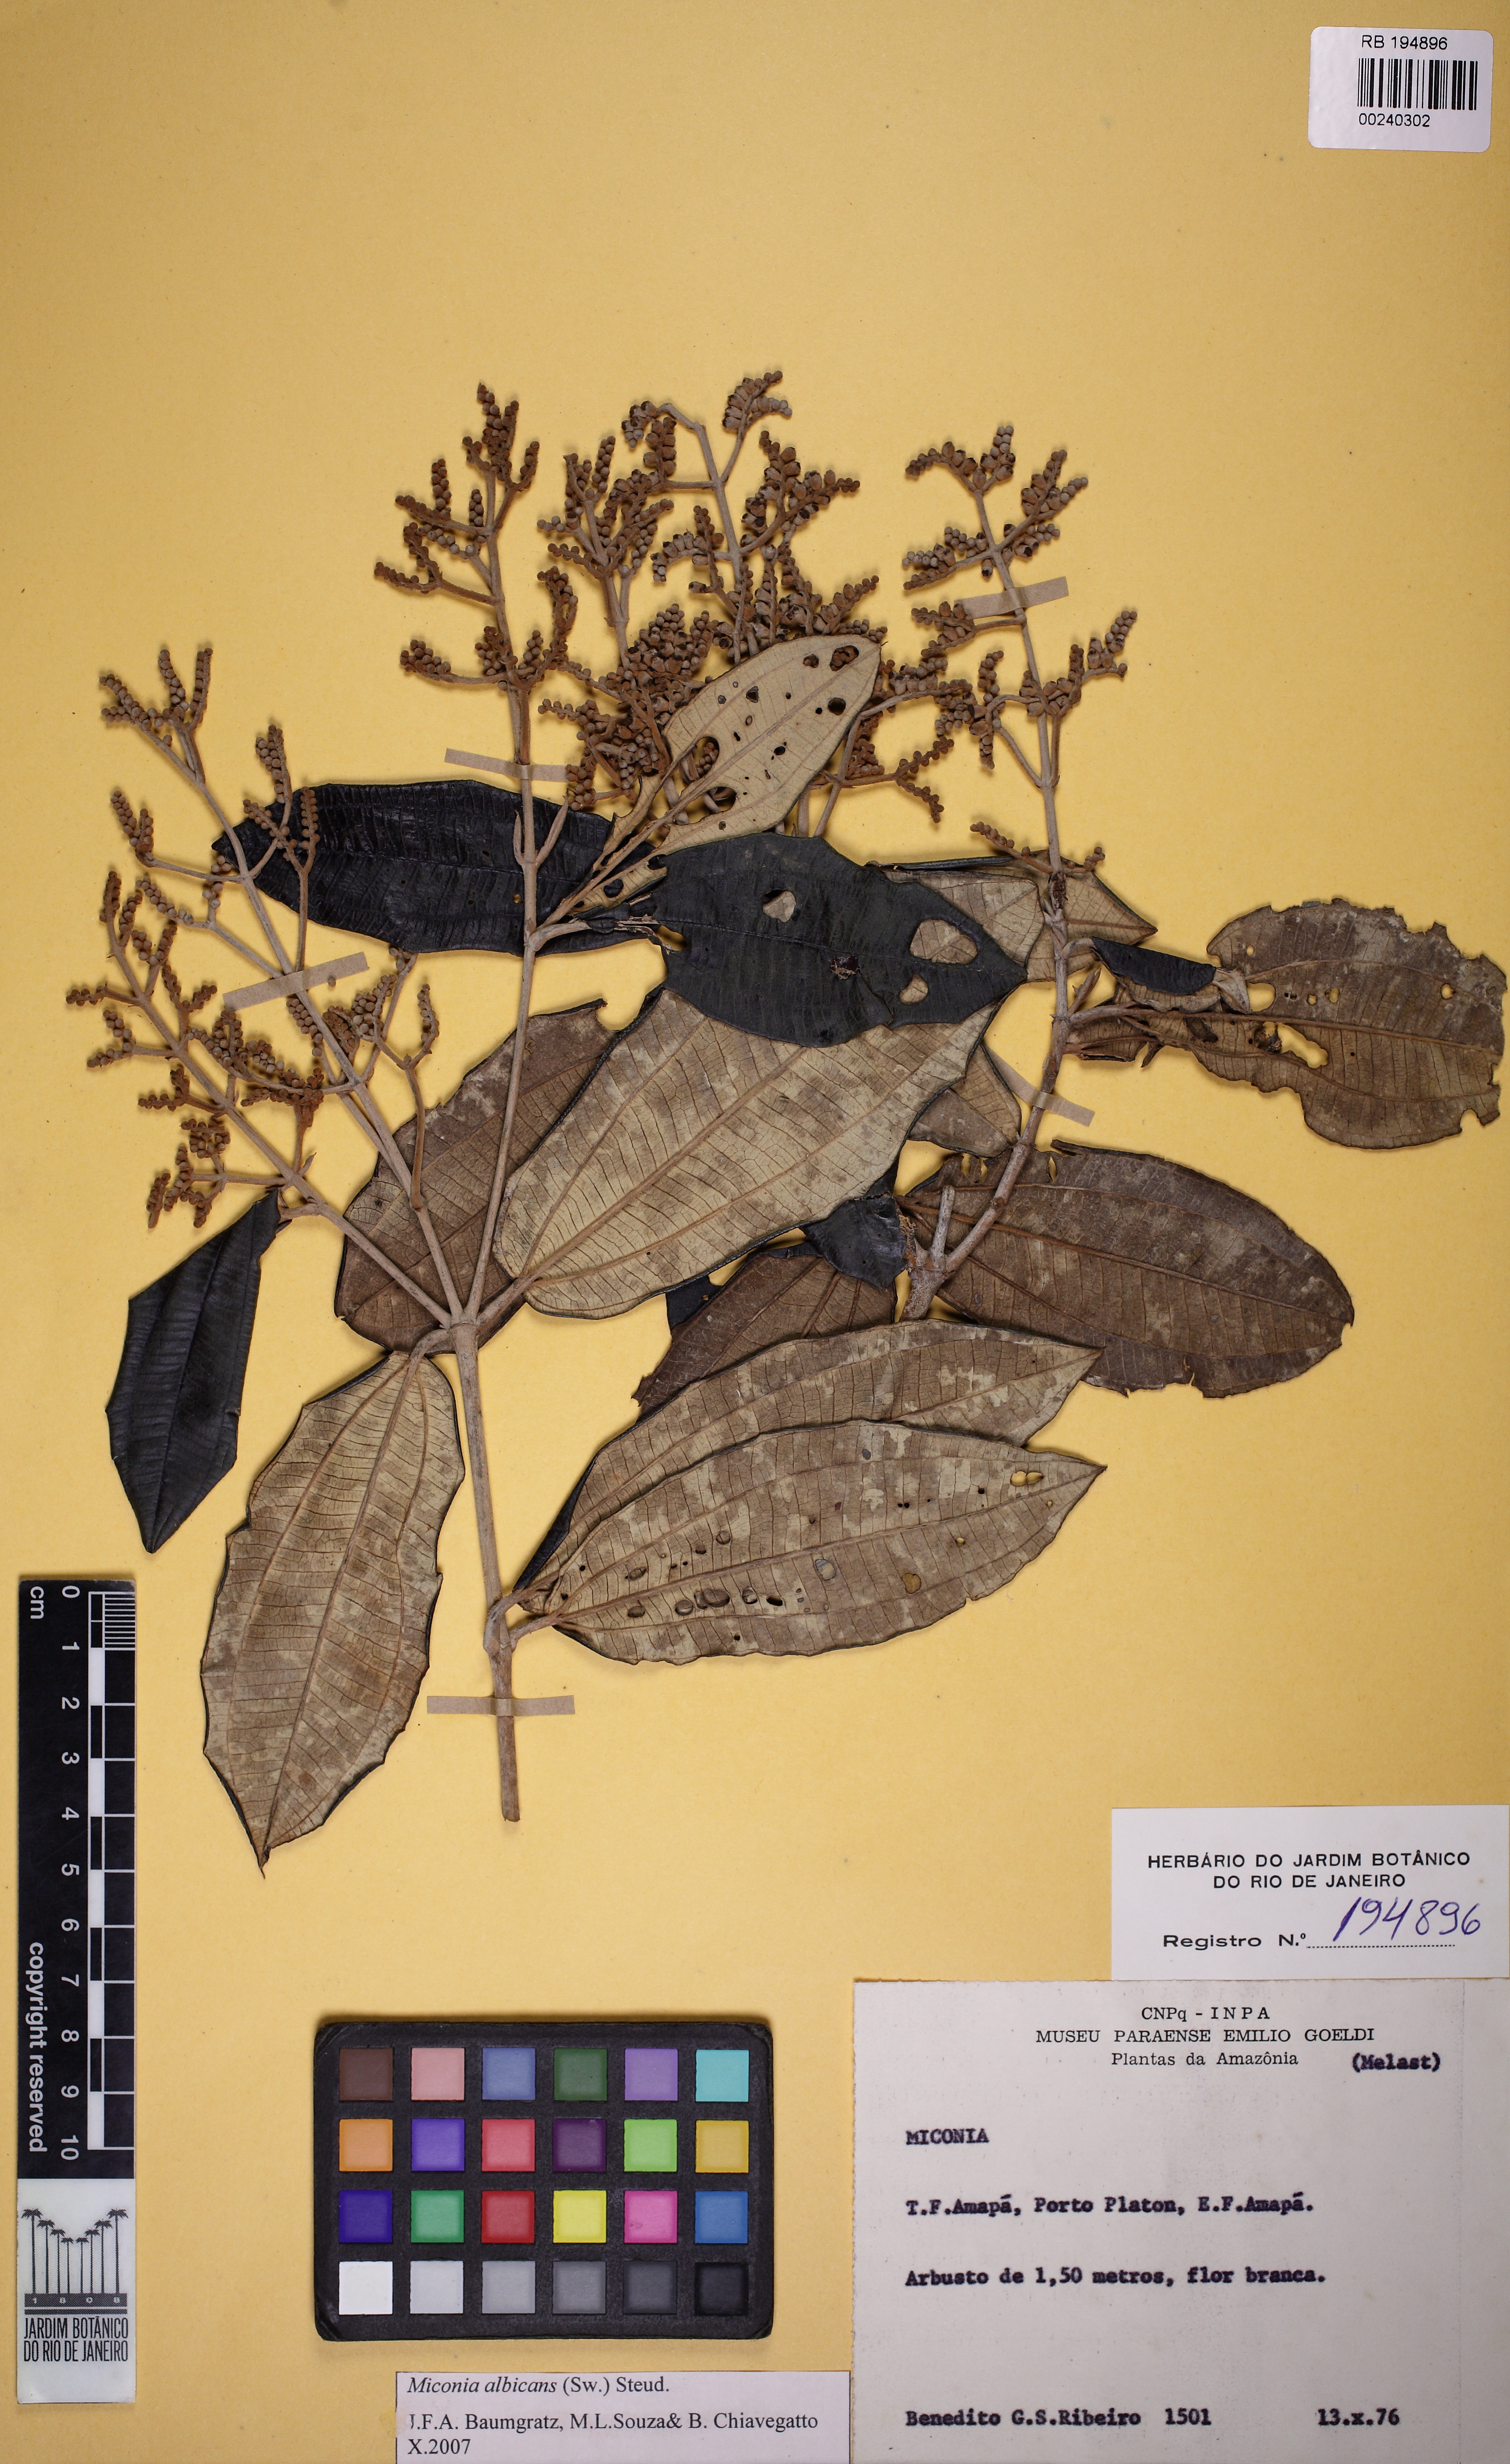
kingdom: Plantae
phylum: Tracheophyta
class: Magnoliopsida
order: Myrtales
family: Melastomataceae
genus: Miconia
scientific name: Miconia albicans
